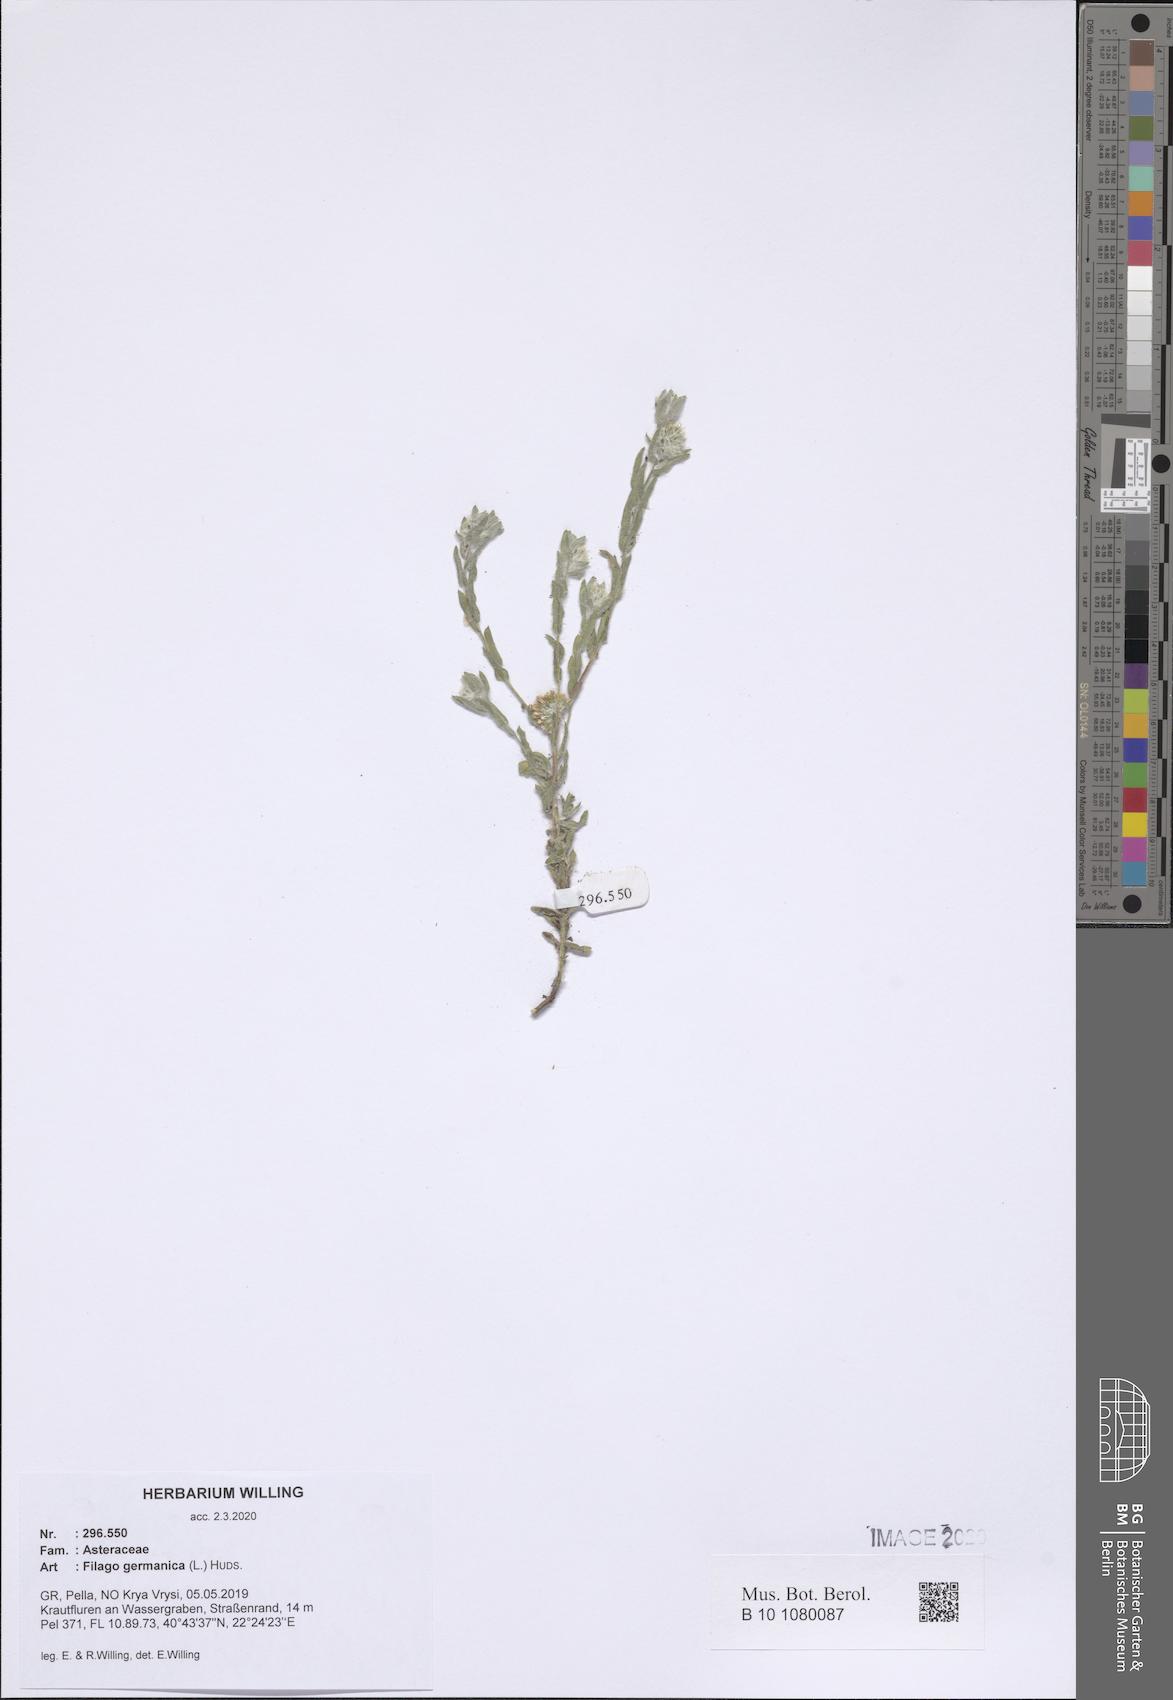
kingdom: Plantae
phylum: Tracheophyta
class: Magnoliopsida
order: Asterales
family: Asteraceae
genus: Filago
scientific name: Filago germanica
